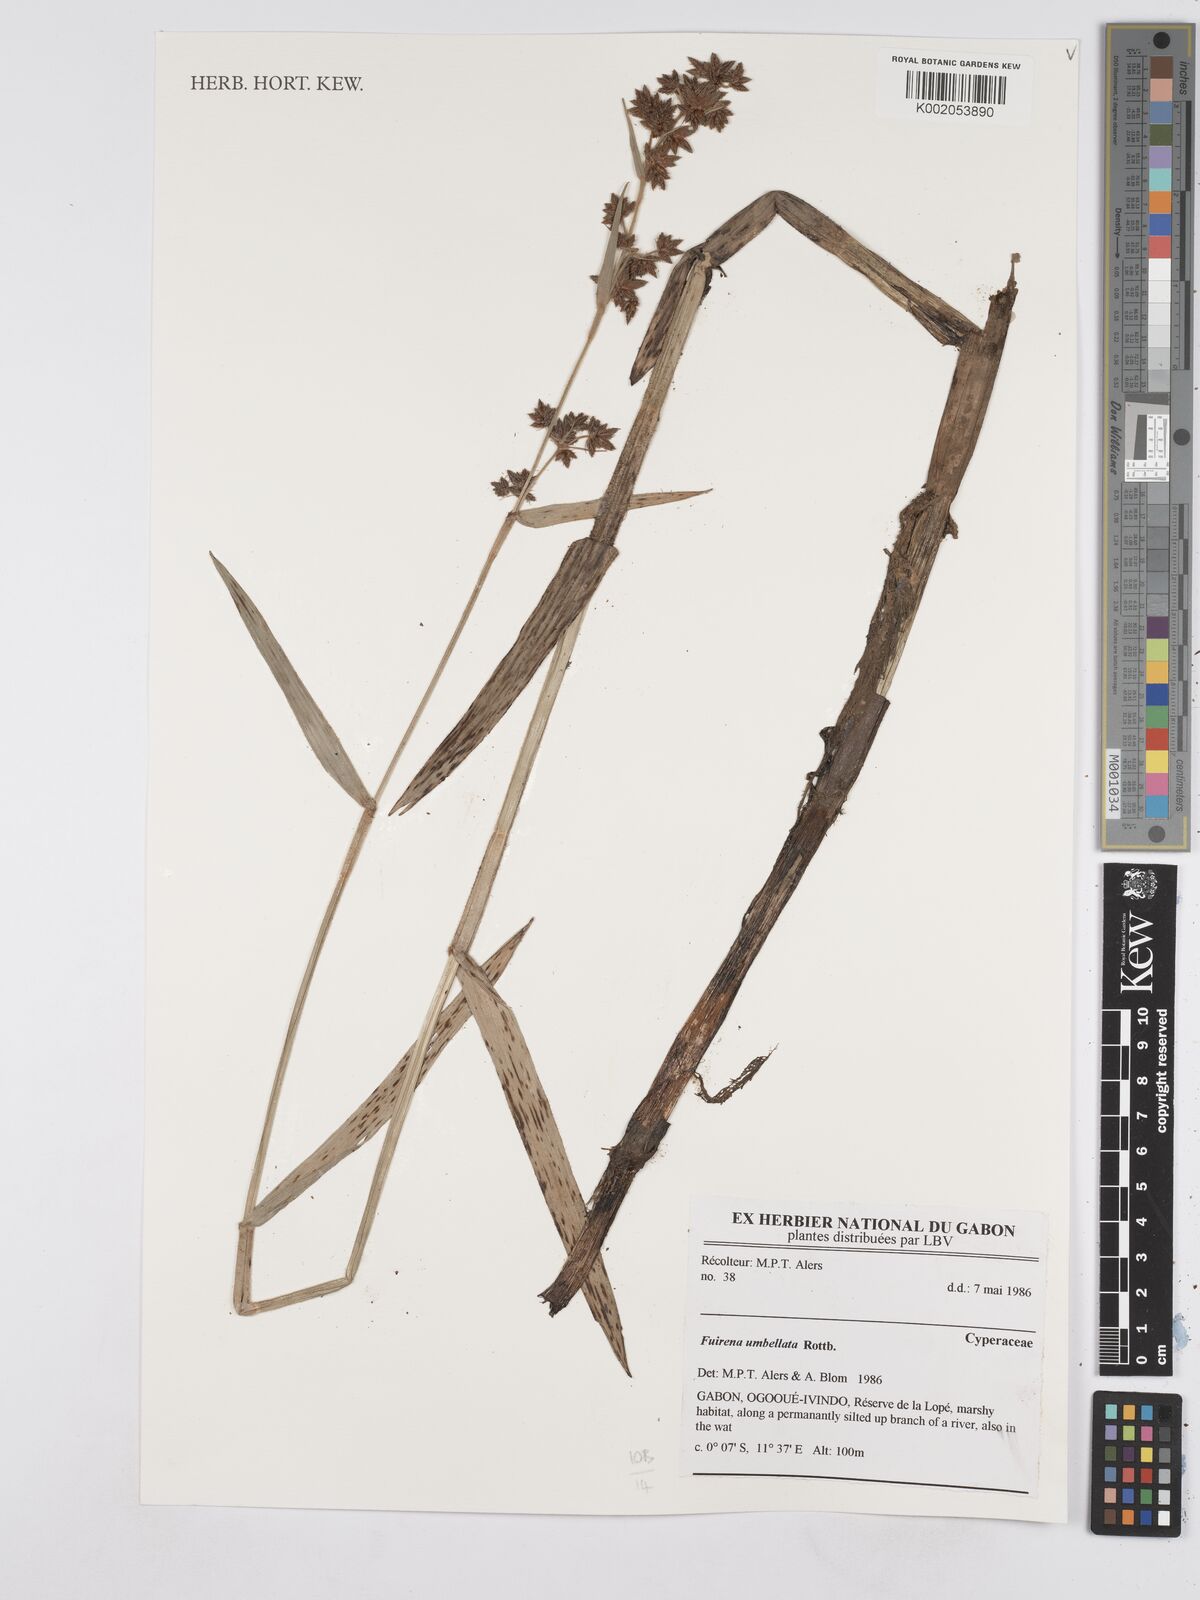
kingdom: Plantae
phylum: Tracheophyta
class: Liliopsida
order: Poales
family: Cyperaceae
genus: Fuirena
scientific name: Fuirena umbellata
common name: Yefen
